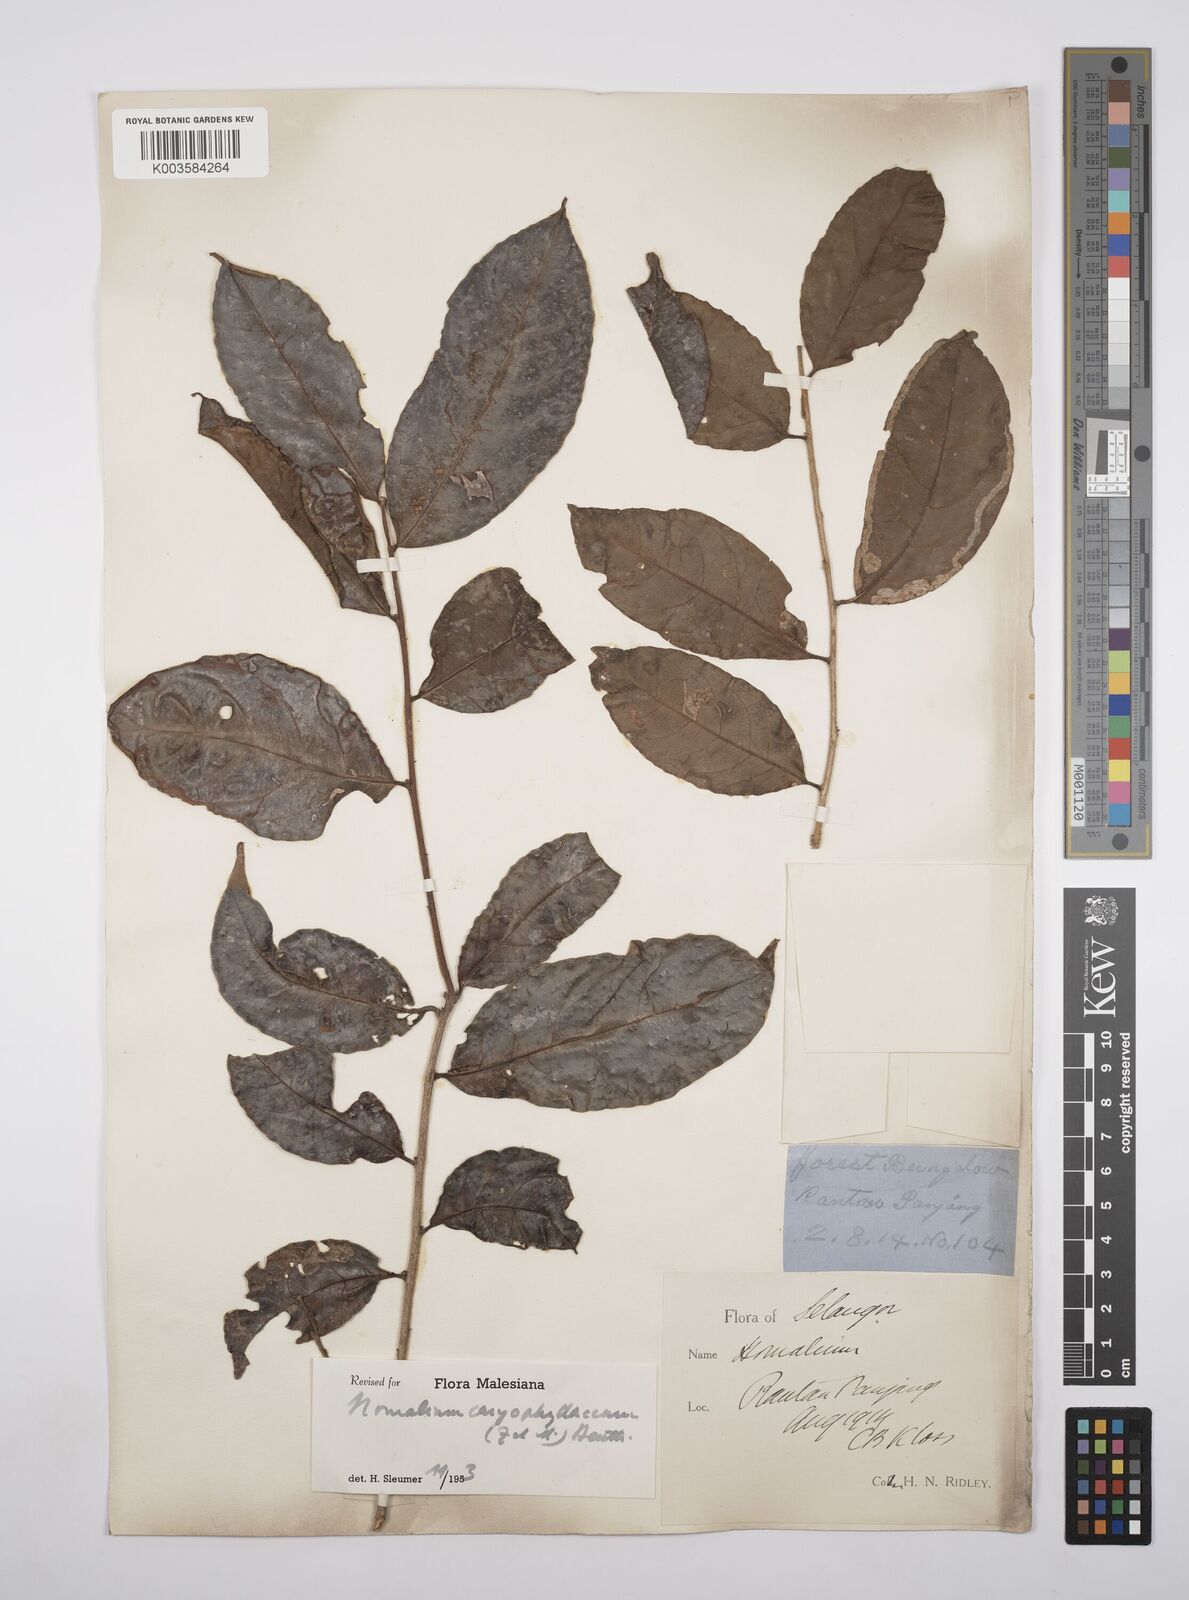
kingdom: Plantae
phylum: Tracheophyta
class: Magnoliopsida
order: Malpighiales
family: Salicaceae
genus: Homalium
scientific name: Homalium caryophyllaceum
